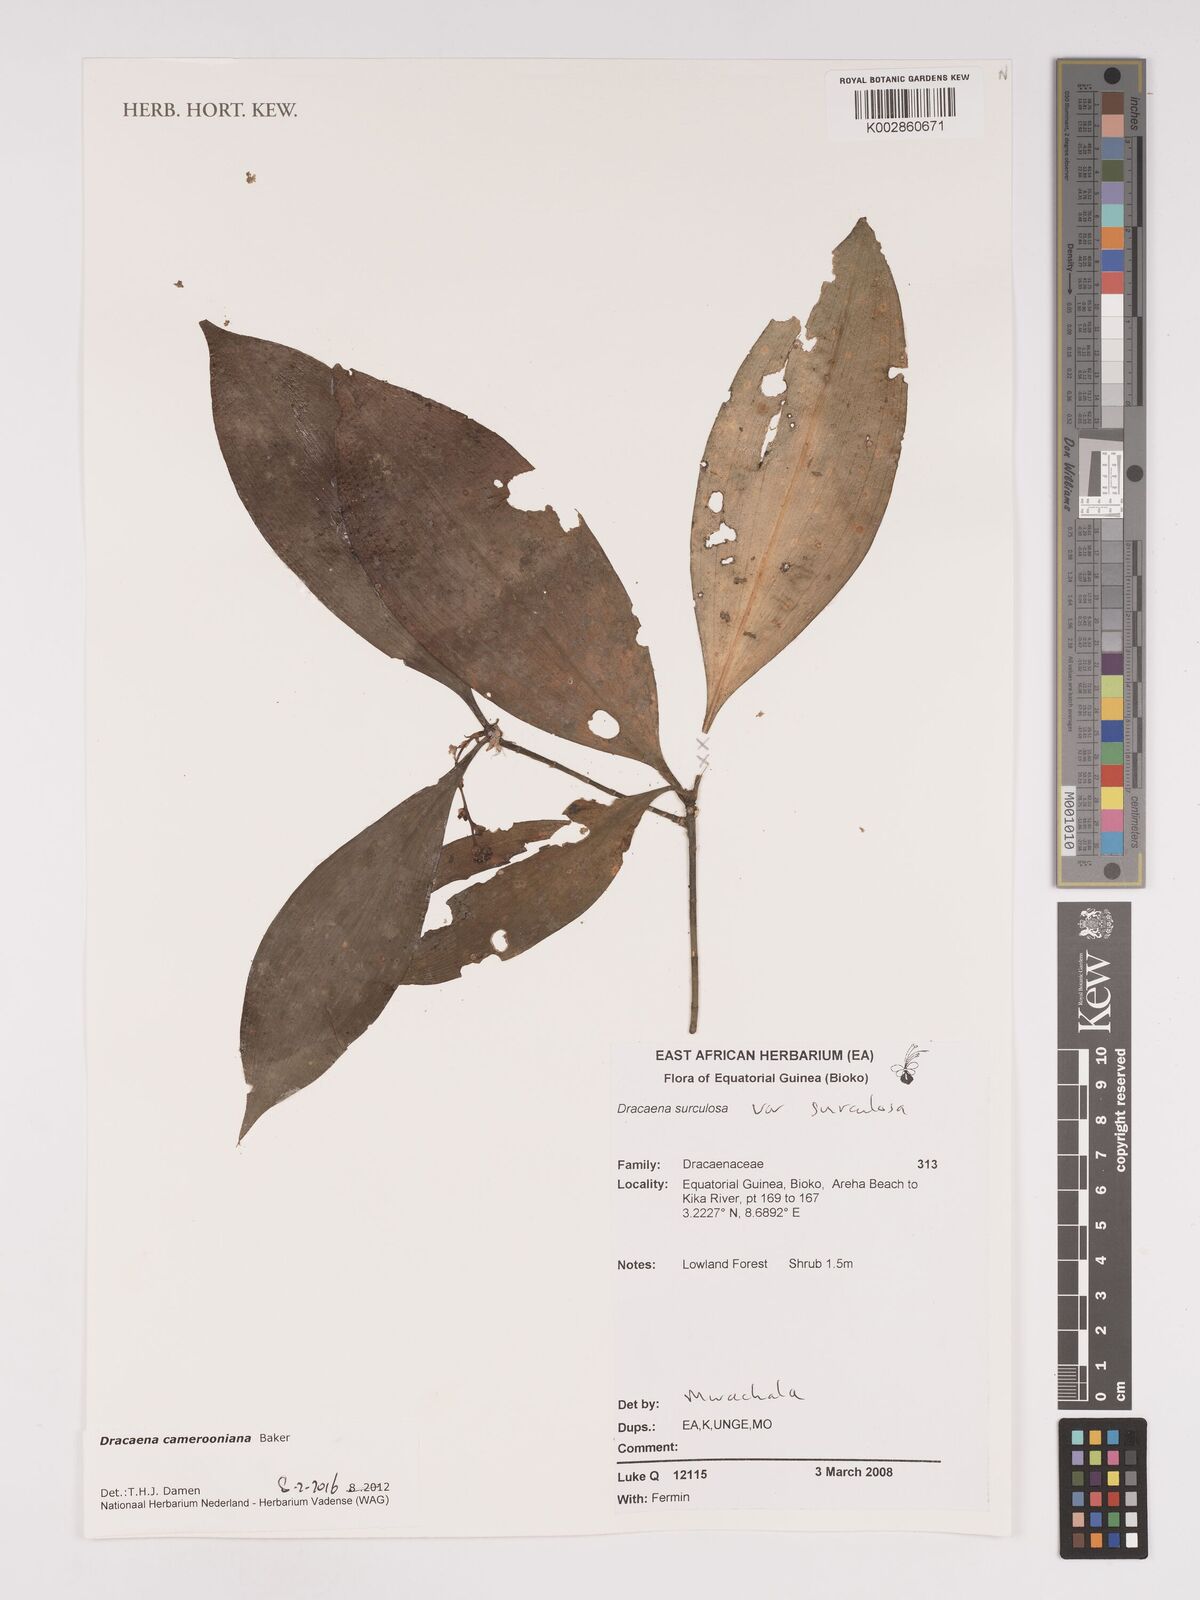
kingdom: Plantae
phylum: Tracheophyta
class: Liliopsida
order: Asparagales
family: Asparagaceae
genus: Dracaena
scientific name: Dracaena camerooniana
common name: Dragon tree
